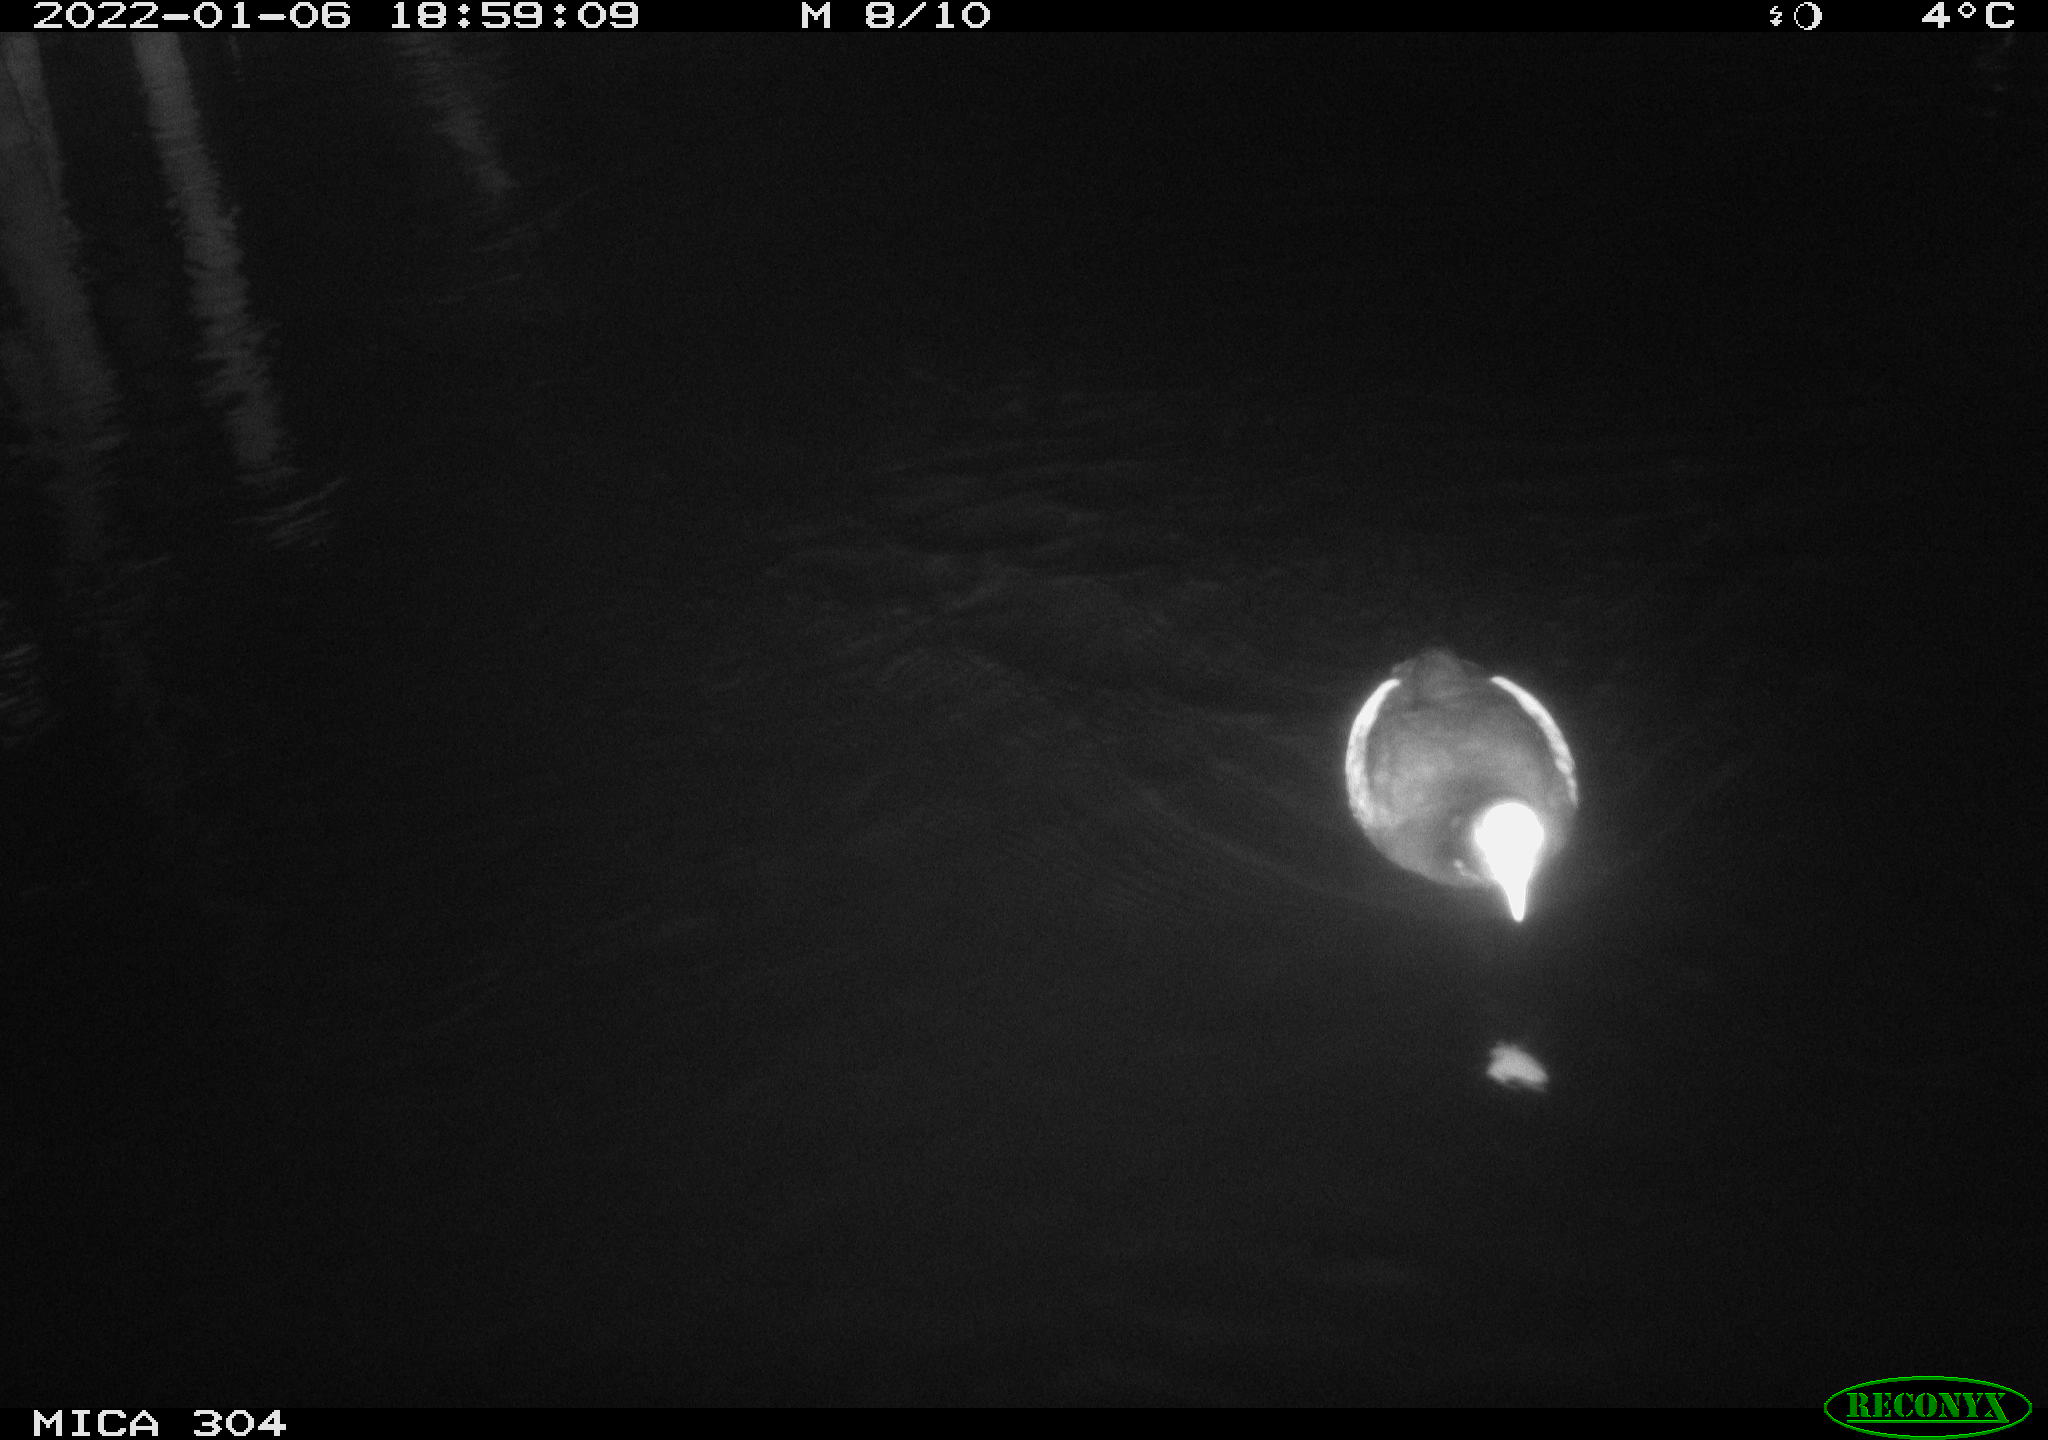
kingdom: Animalia
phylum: Chordata
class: Aves
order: Gruiformes
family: Rallidae
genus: Fulica
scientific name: Fulica atra
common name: Eurasian coot
